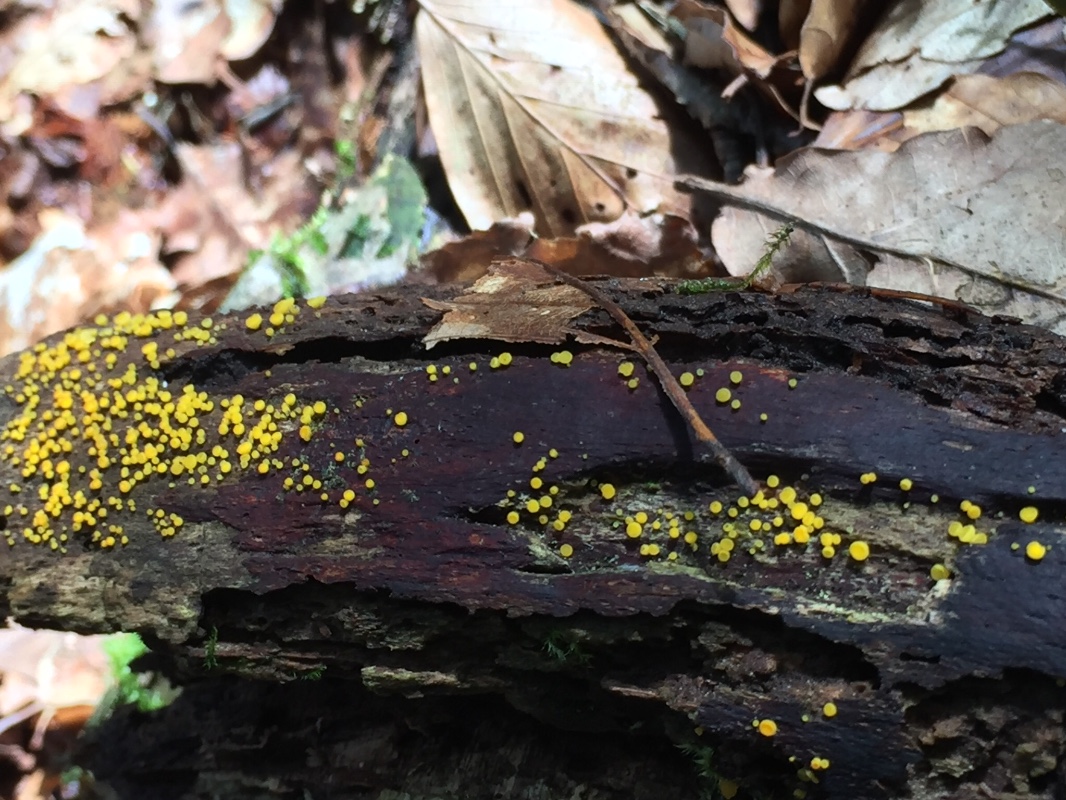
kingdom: Fungi
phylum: Ascomycota
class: Leotiomycetes
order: Helotiales
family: Pezizellaceae
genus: Calycina
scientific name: Calycina citrina
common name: almindelig gulskive
